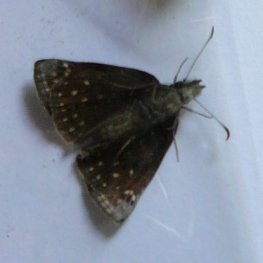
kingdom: Animalia
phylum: Arthropoda
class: Insecta
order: Lepidoptera
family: Hesperiidae
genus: Erynnis
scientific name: Erynnis icelus
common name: Dreamy Duskywing
